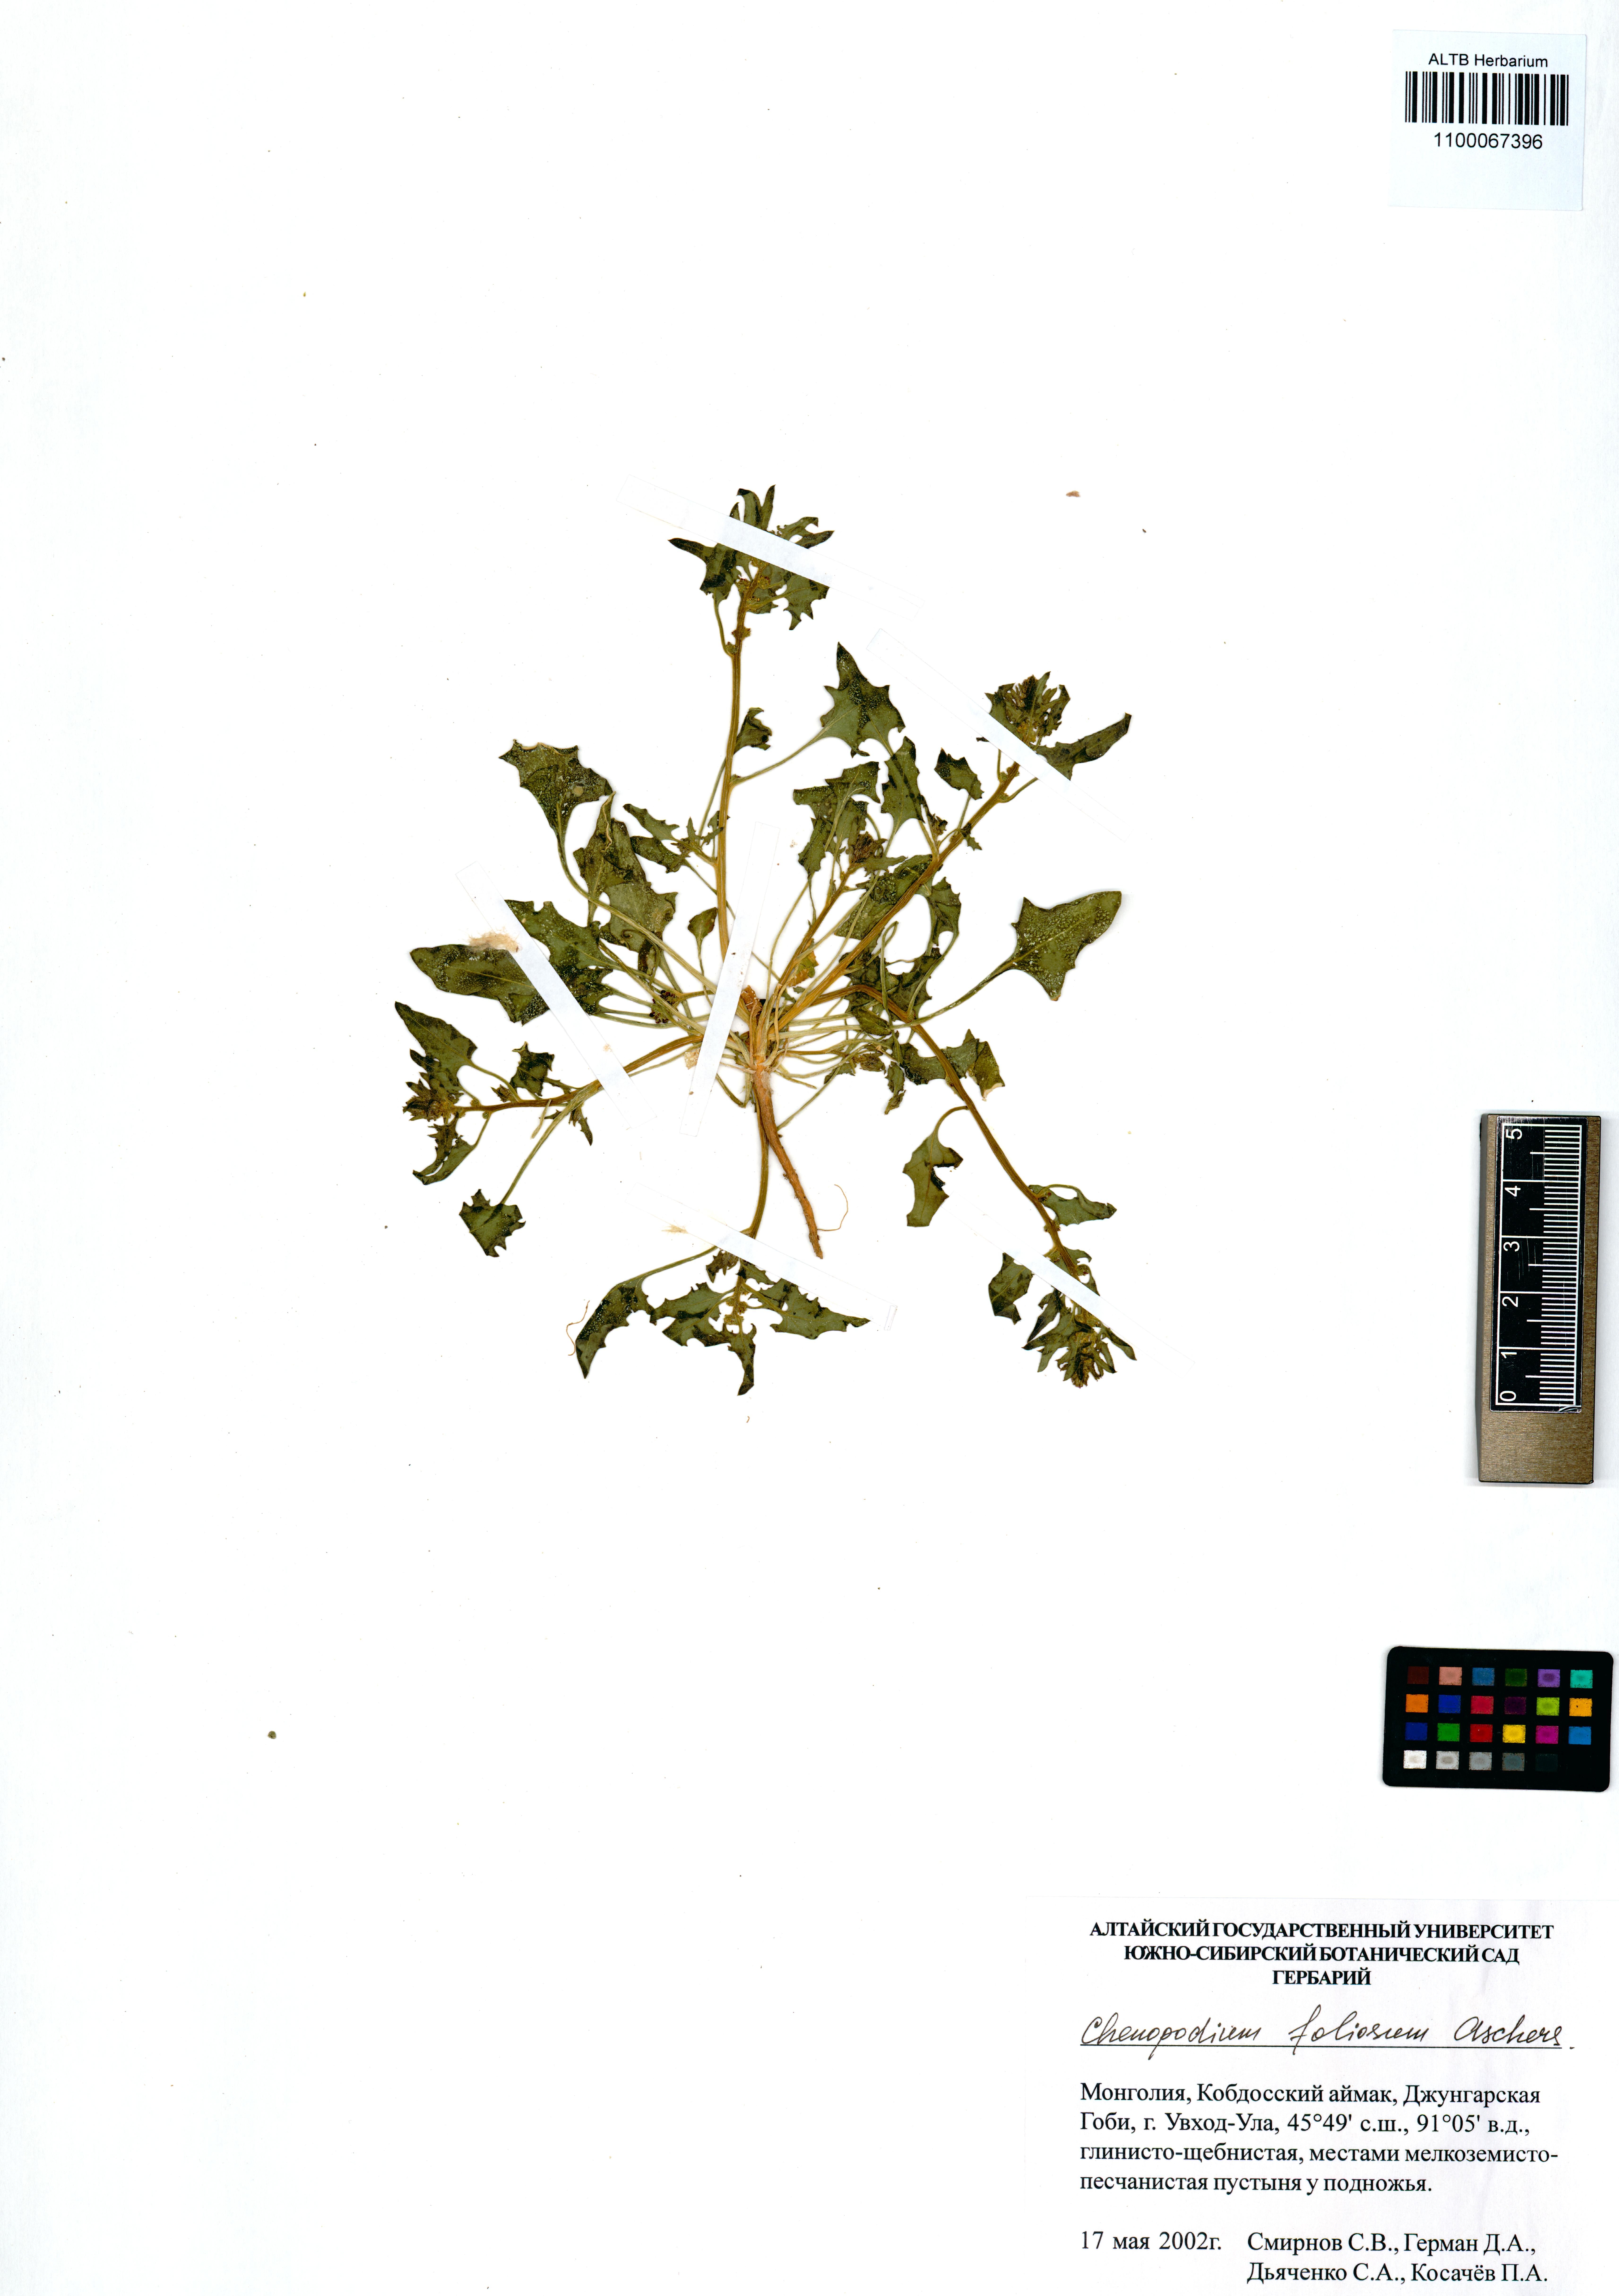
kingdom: Plantae
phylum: Tracheophyta
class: Magnoliopsida
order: Caryophyllales
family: Amaranthaceae
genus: Blitum
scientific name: Blitum virgatum
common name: Strawberry goosefoot
